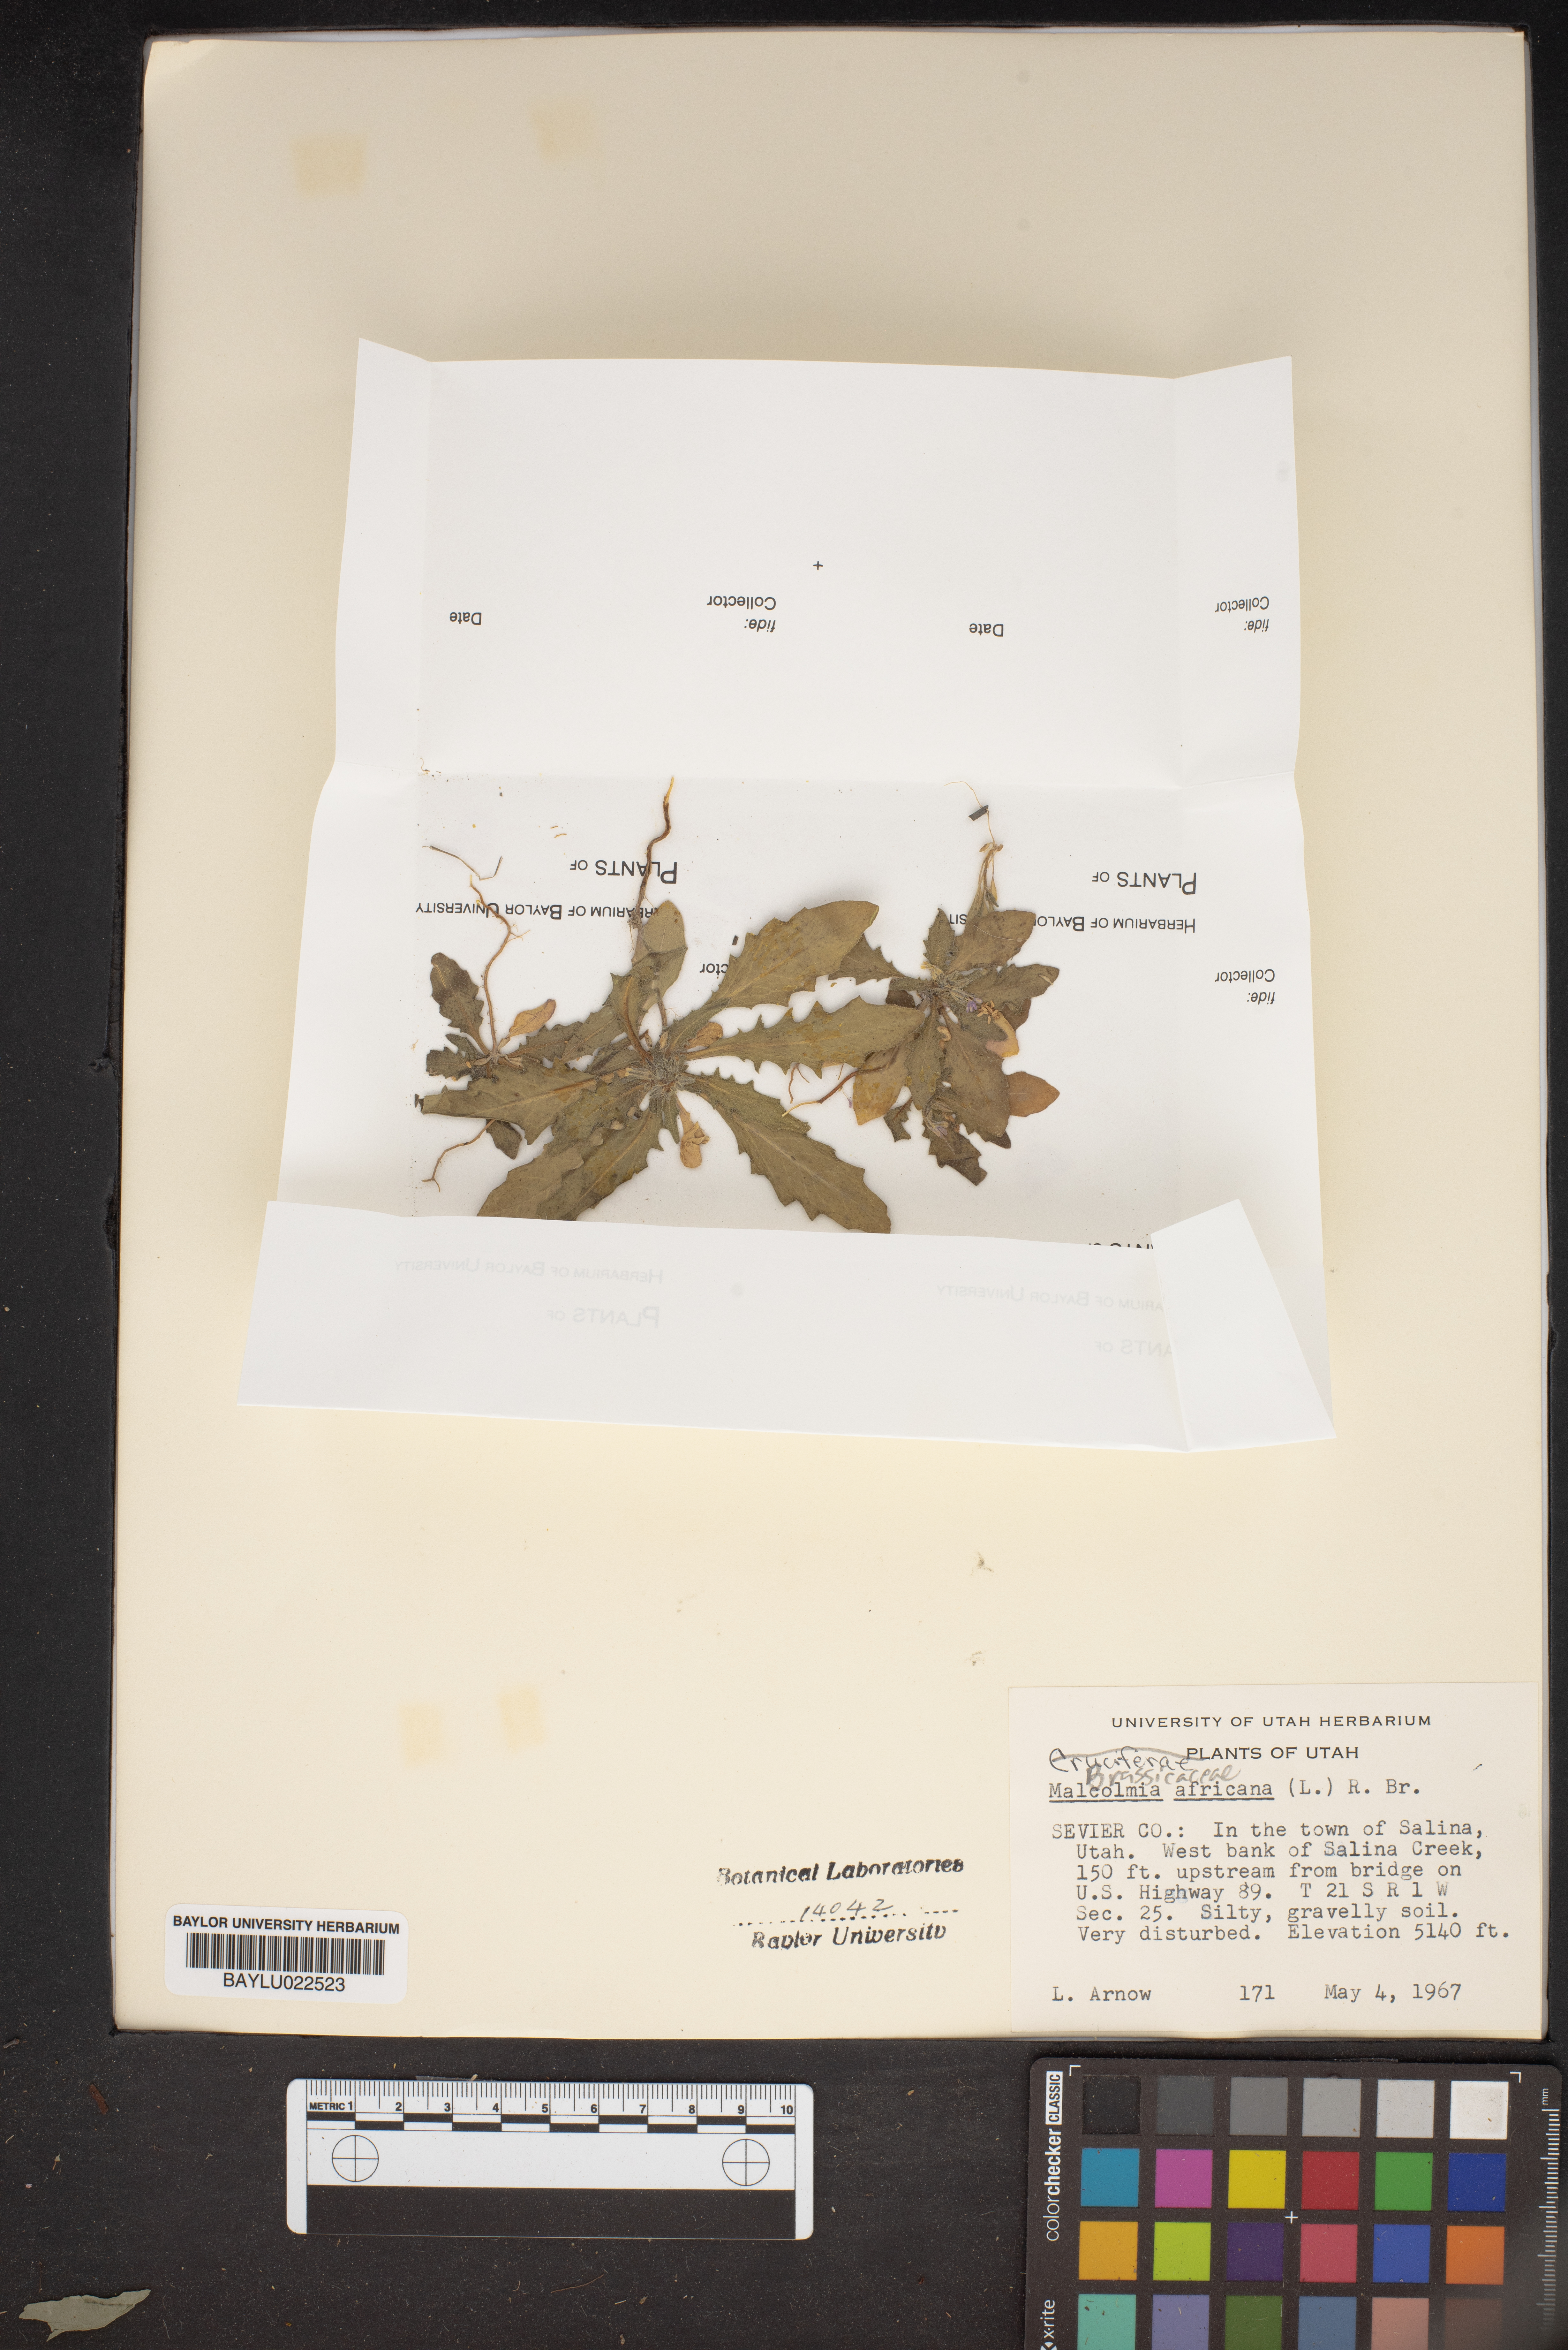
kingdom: Plantae
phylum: Tracheophyta
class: Magnoliopsida
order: Brassicales
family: Brassicaceae
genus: Strigosella
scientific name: Strigosella africana
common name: African mustard
